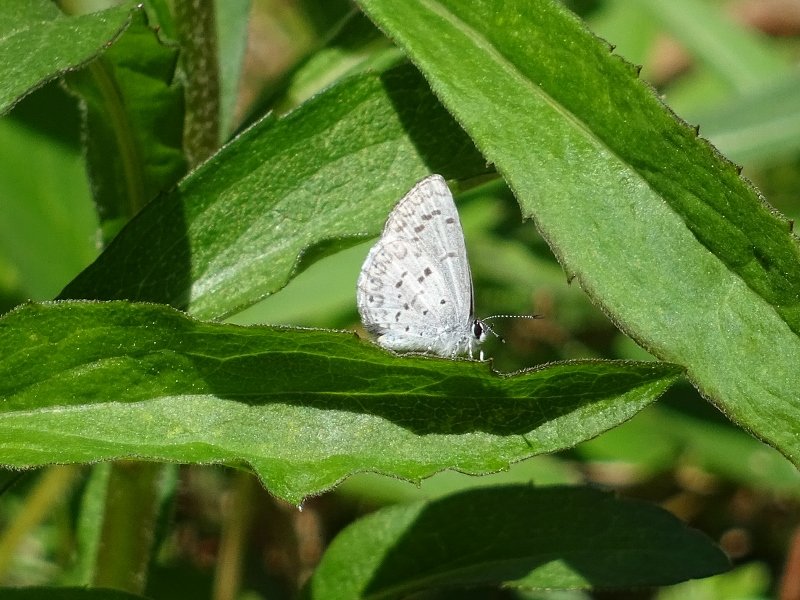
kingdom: Animalia
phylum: Arthropoda
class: Insecta
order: Lepidoptera
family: Lycaenidae
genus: Celastrina
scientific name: Celastrina
